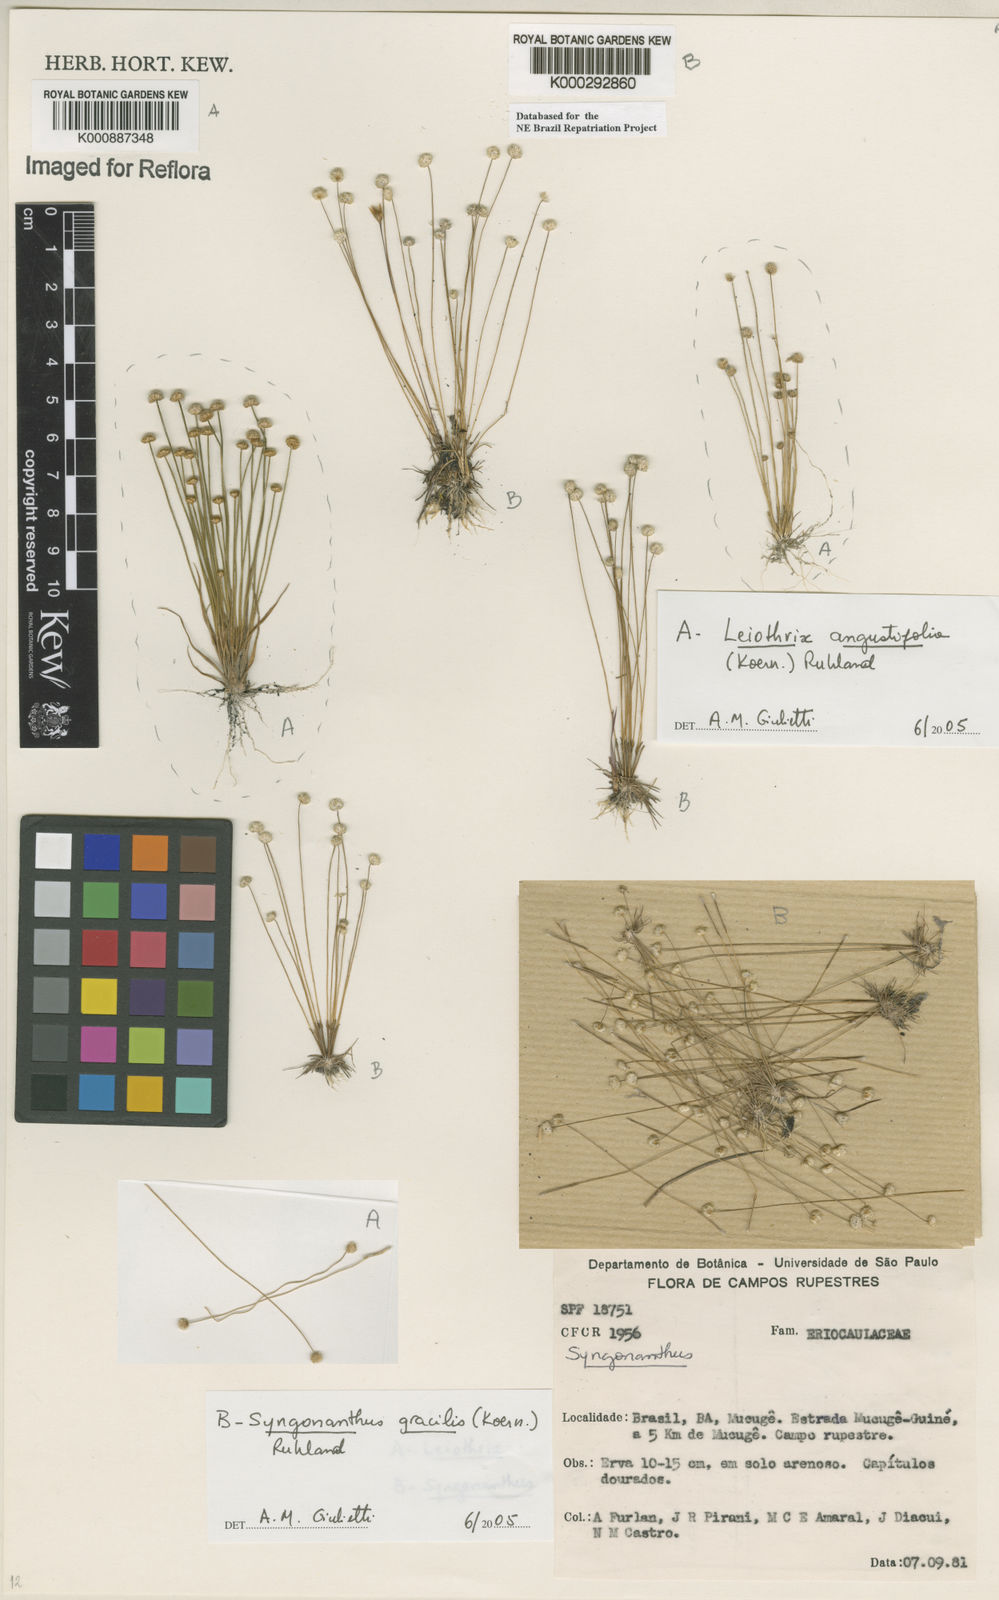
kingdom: Plantae
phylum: Tracheophyta
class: Liliopsida
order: Poales
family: Eriocaulaceae
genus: Leiothrix
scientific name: Leiothrix angustifolia
